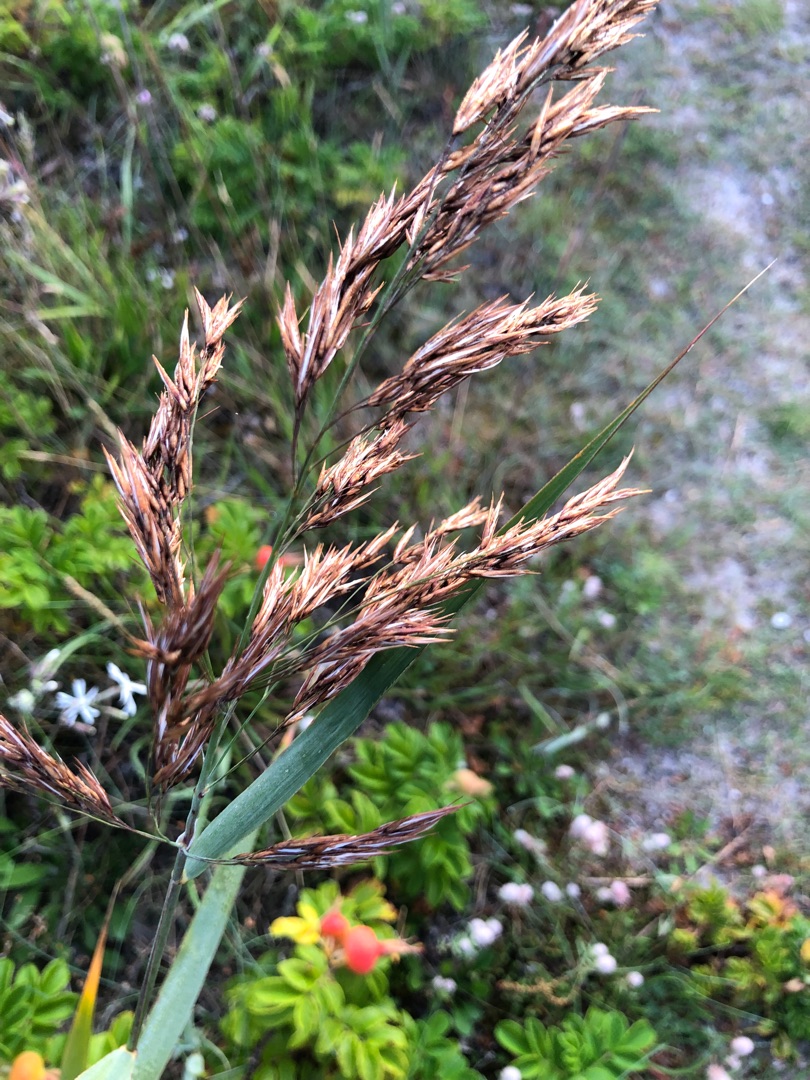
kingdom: Plantae
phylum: Tracheophyta
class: Liliopsida
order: Poales
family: Poaceae
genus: Phragmites
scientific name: Phragmites australis
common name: Tagrør
